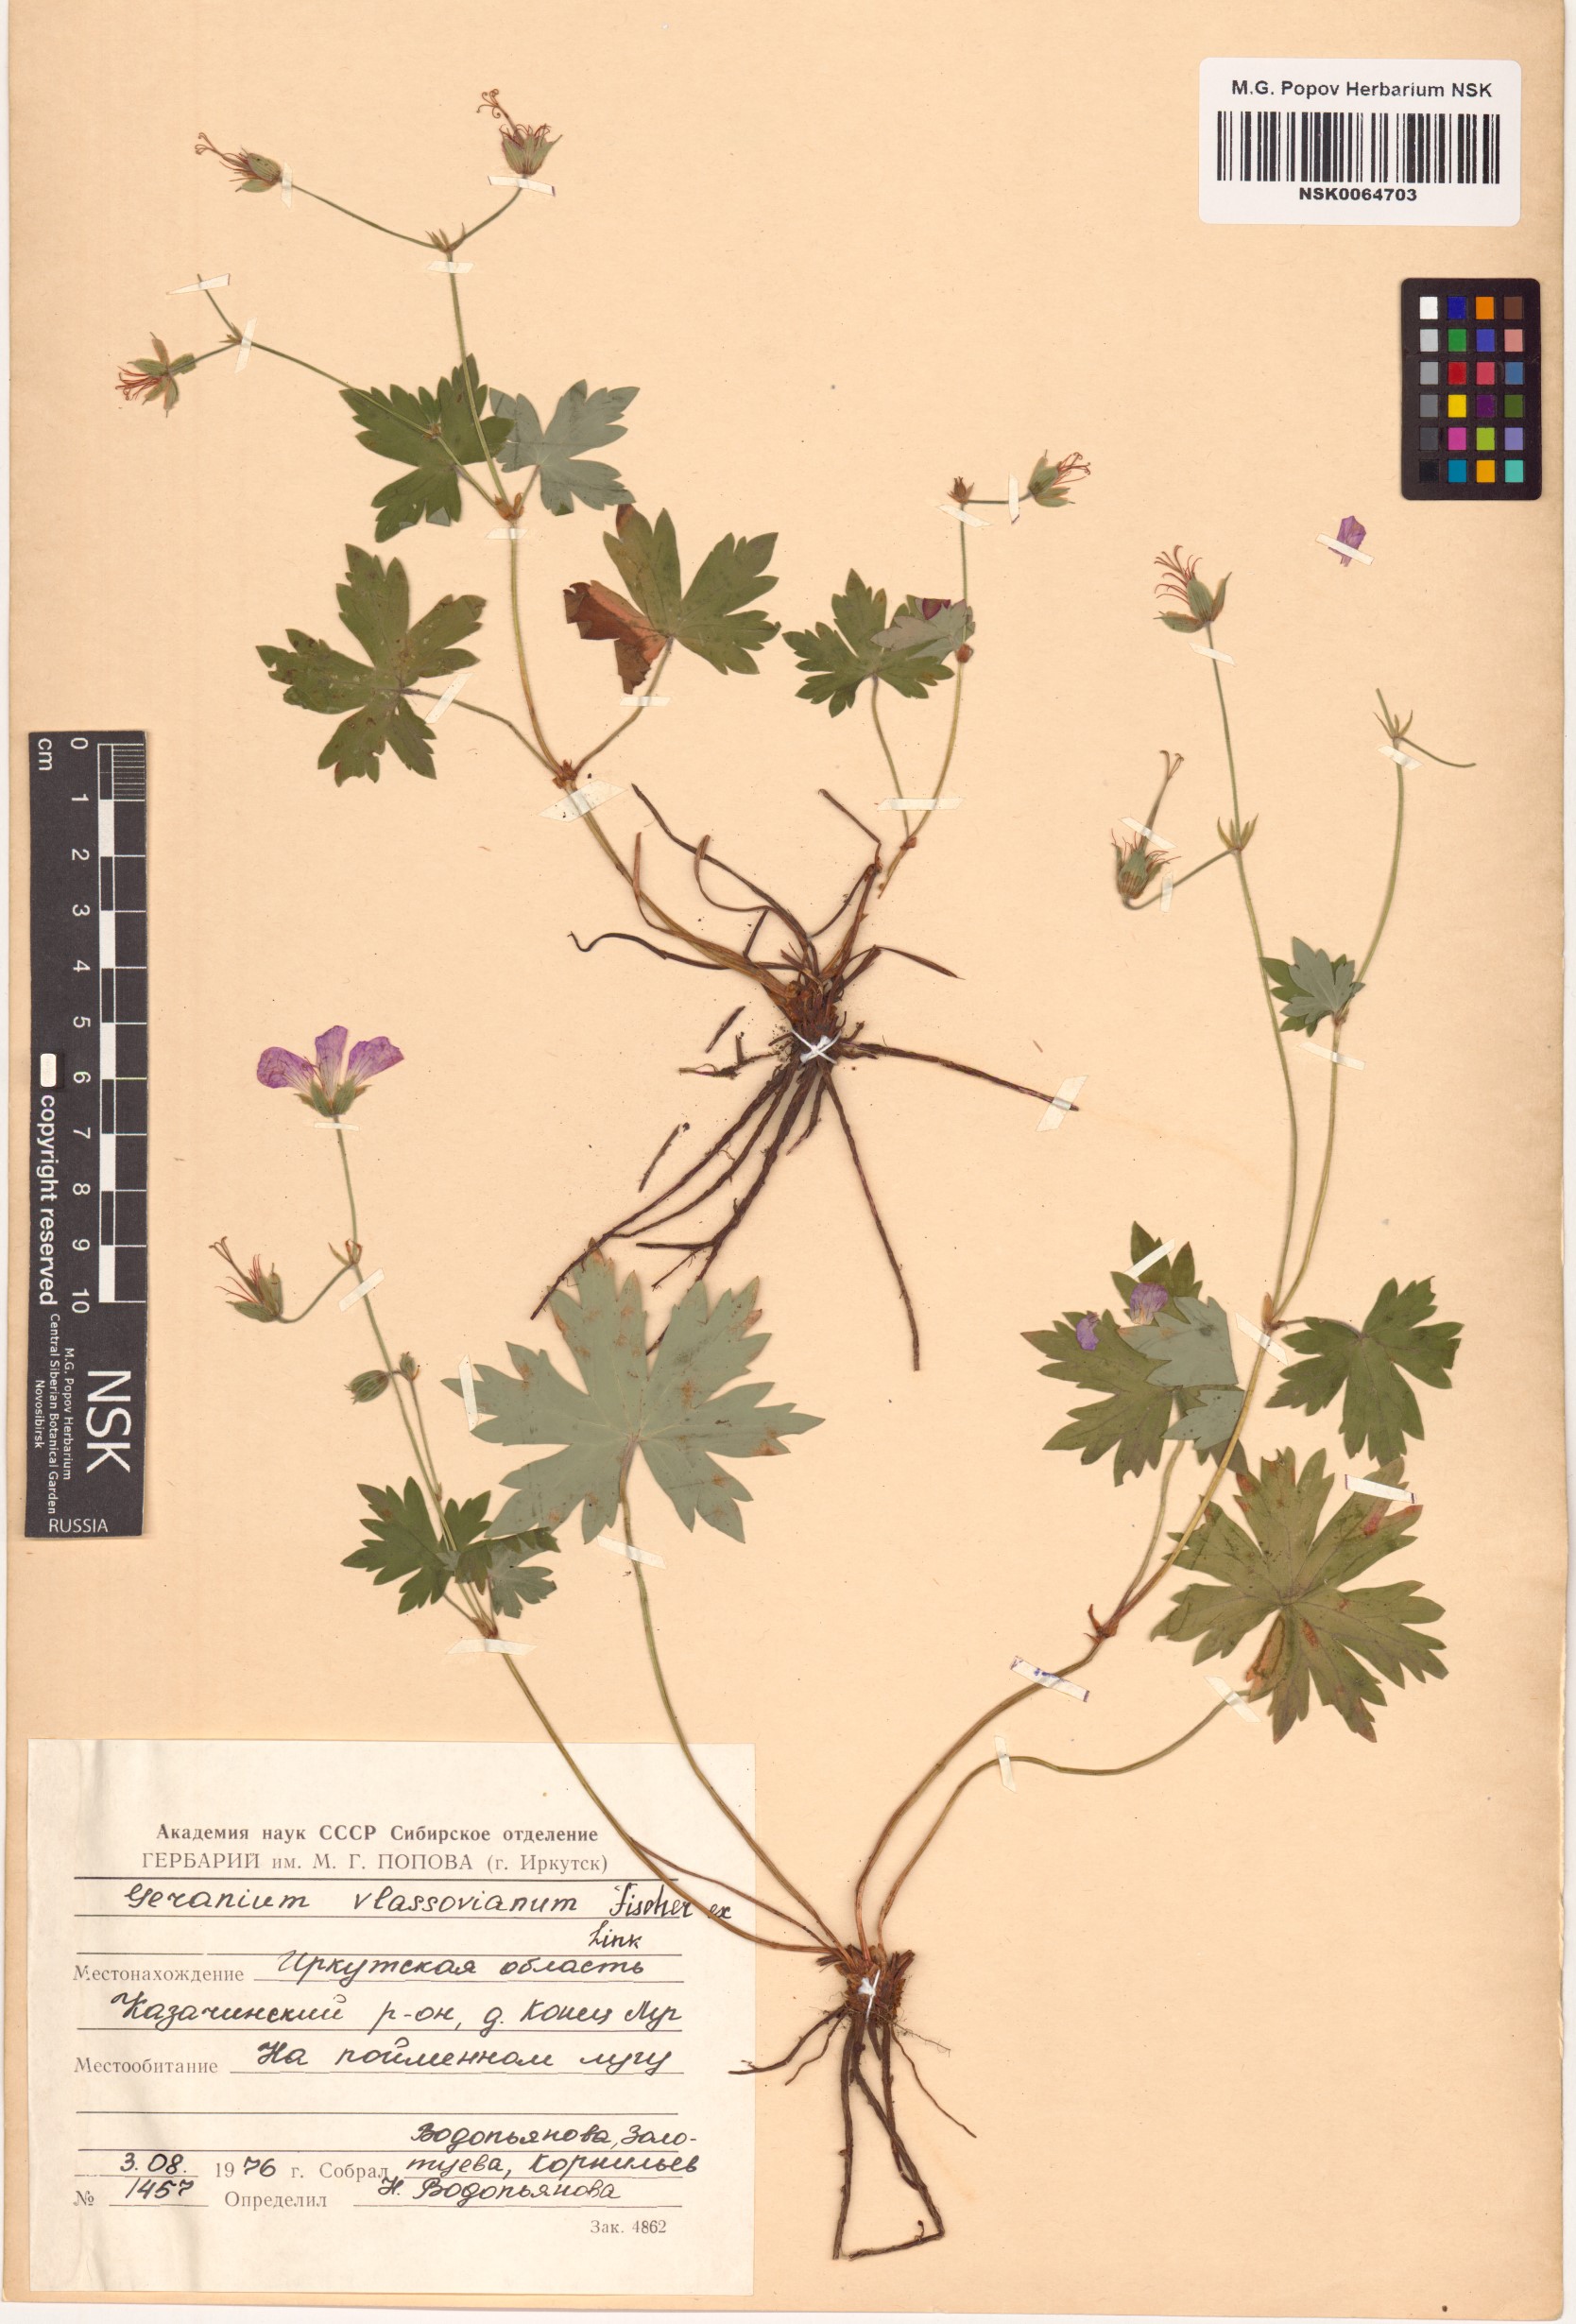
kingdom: Plantae
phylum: Tracheophyta
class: Magnoliopsida
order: Geraniales
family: Geraniaceae
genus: Geranium
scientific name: Geranium wlassovianum
